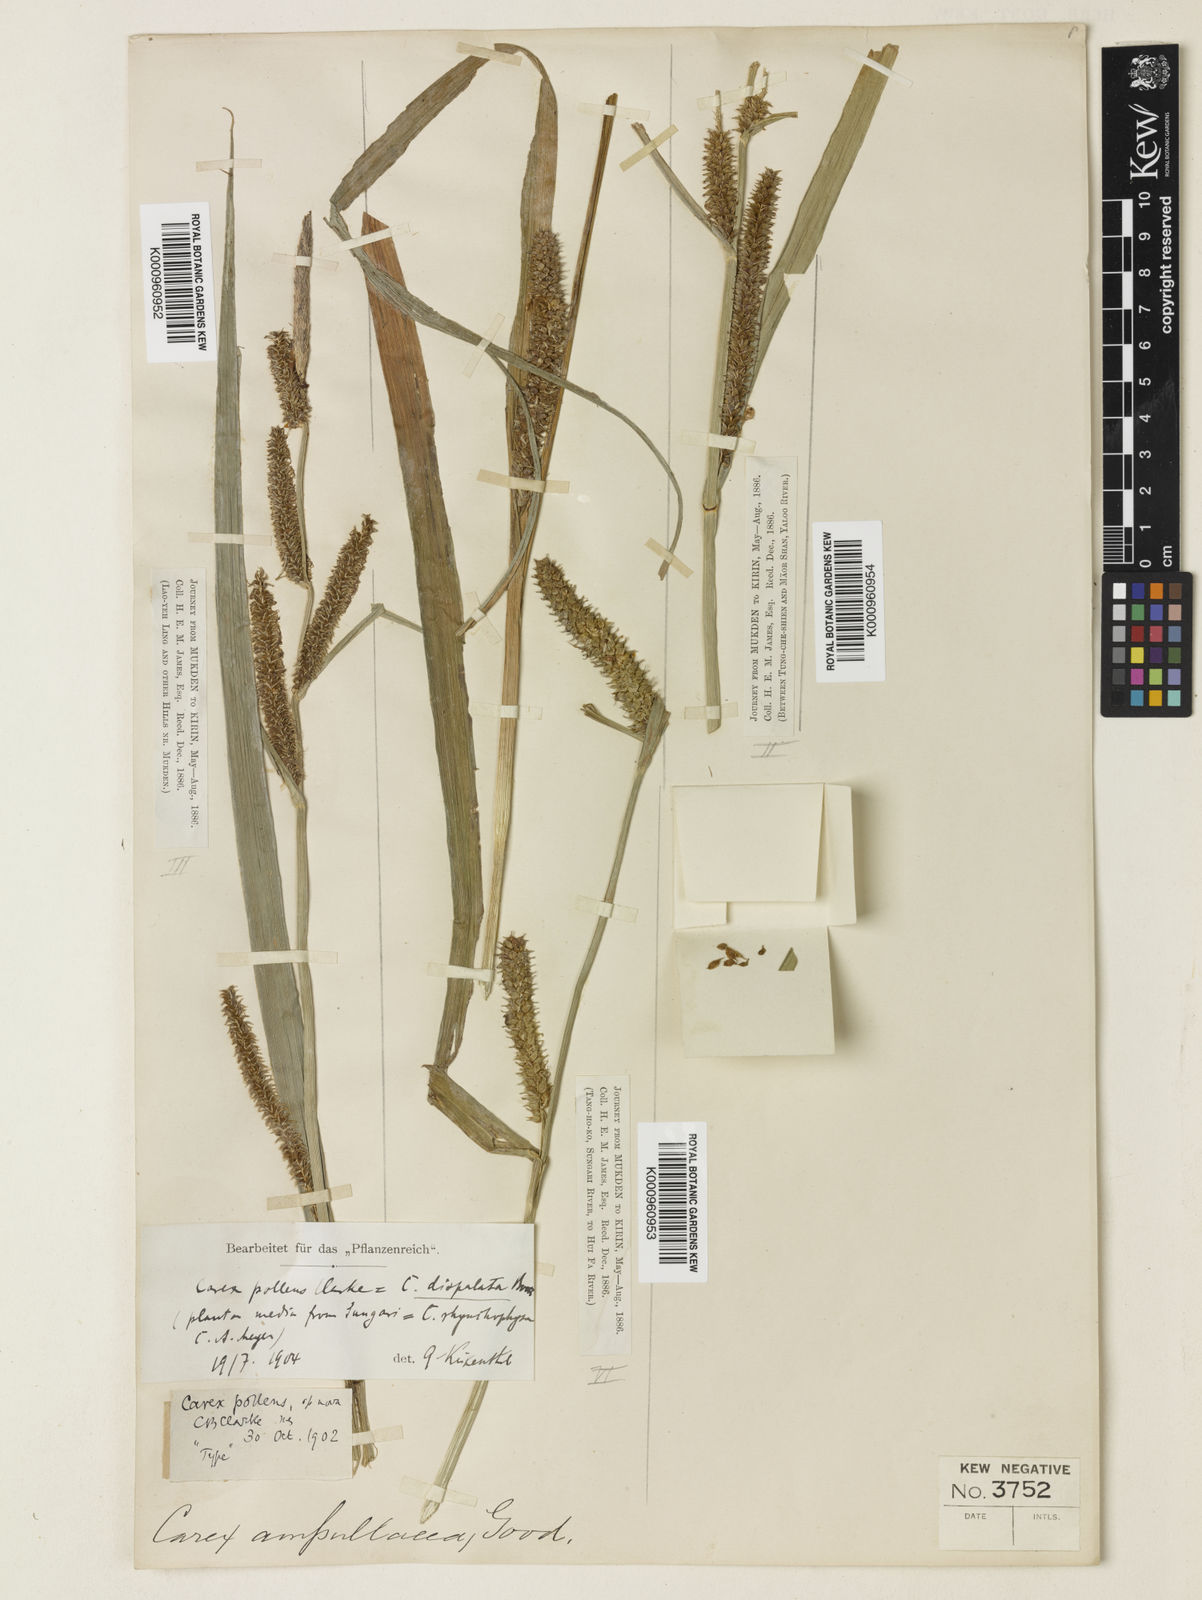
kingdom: Plantae
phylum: Tracheophyta
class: Liliopsida
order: Poales
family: Cyperaceae
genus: Carex
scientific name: Carex dispalata
